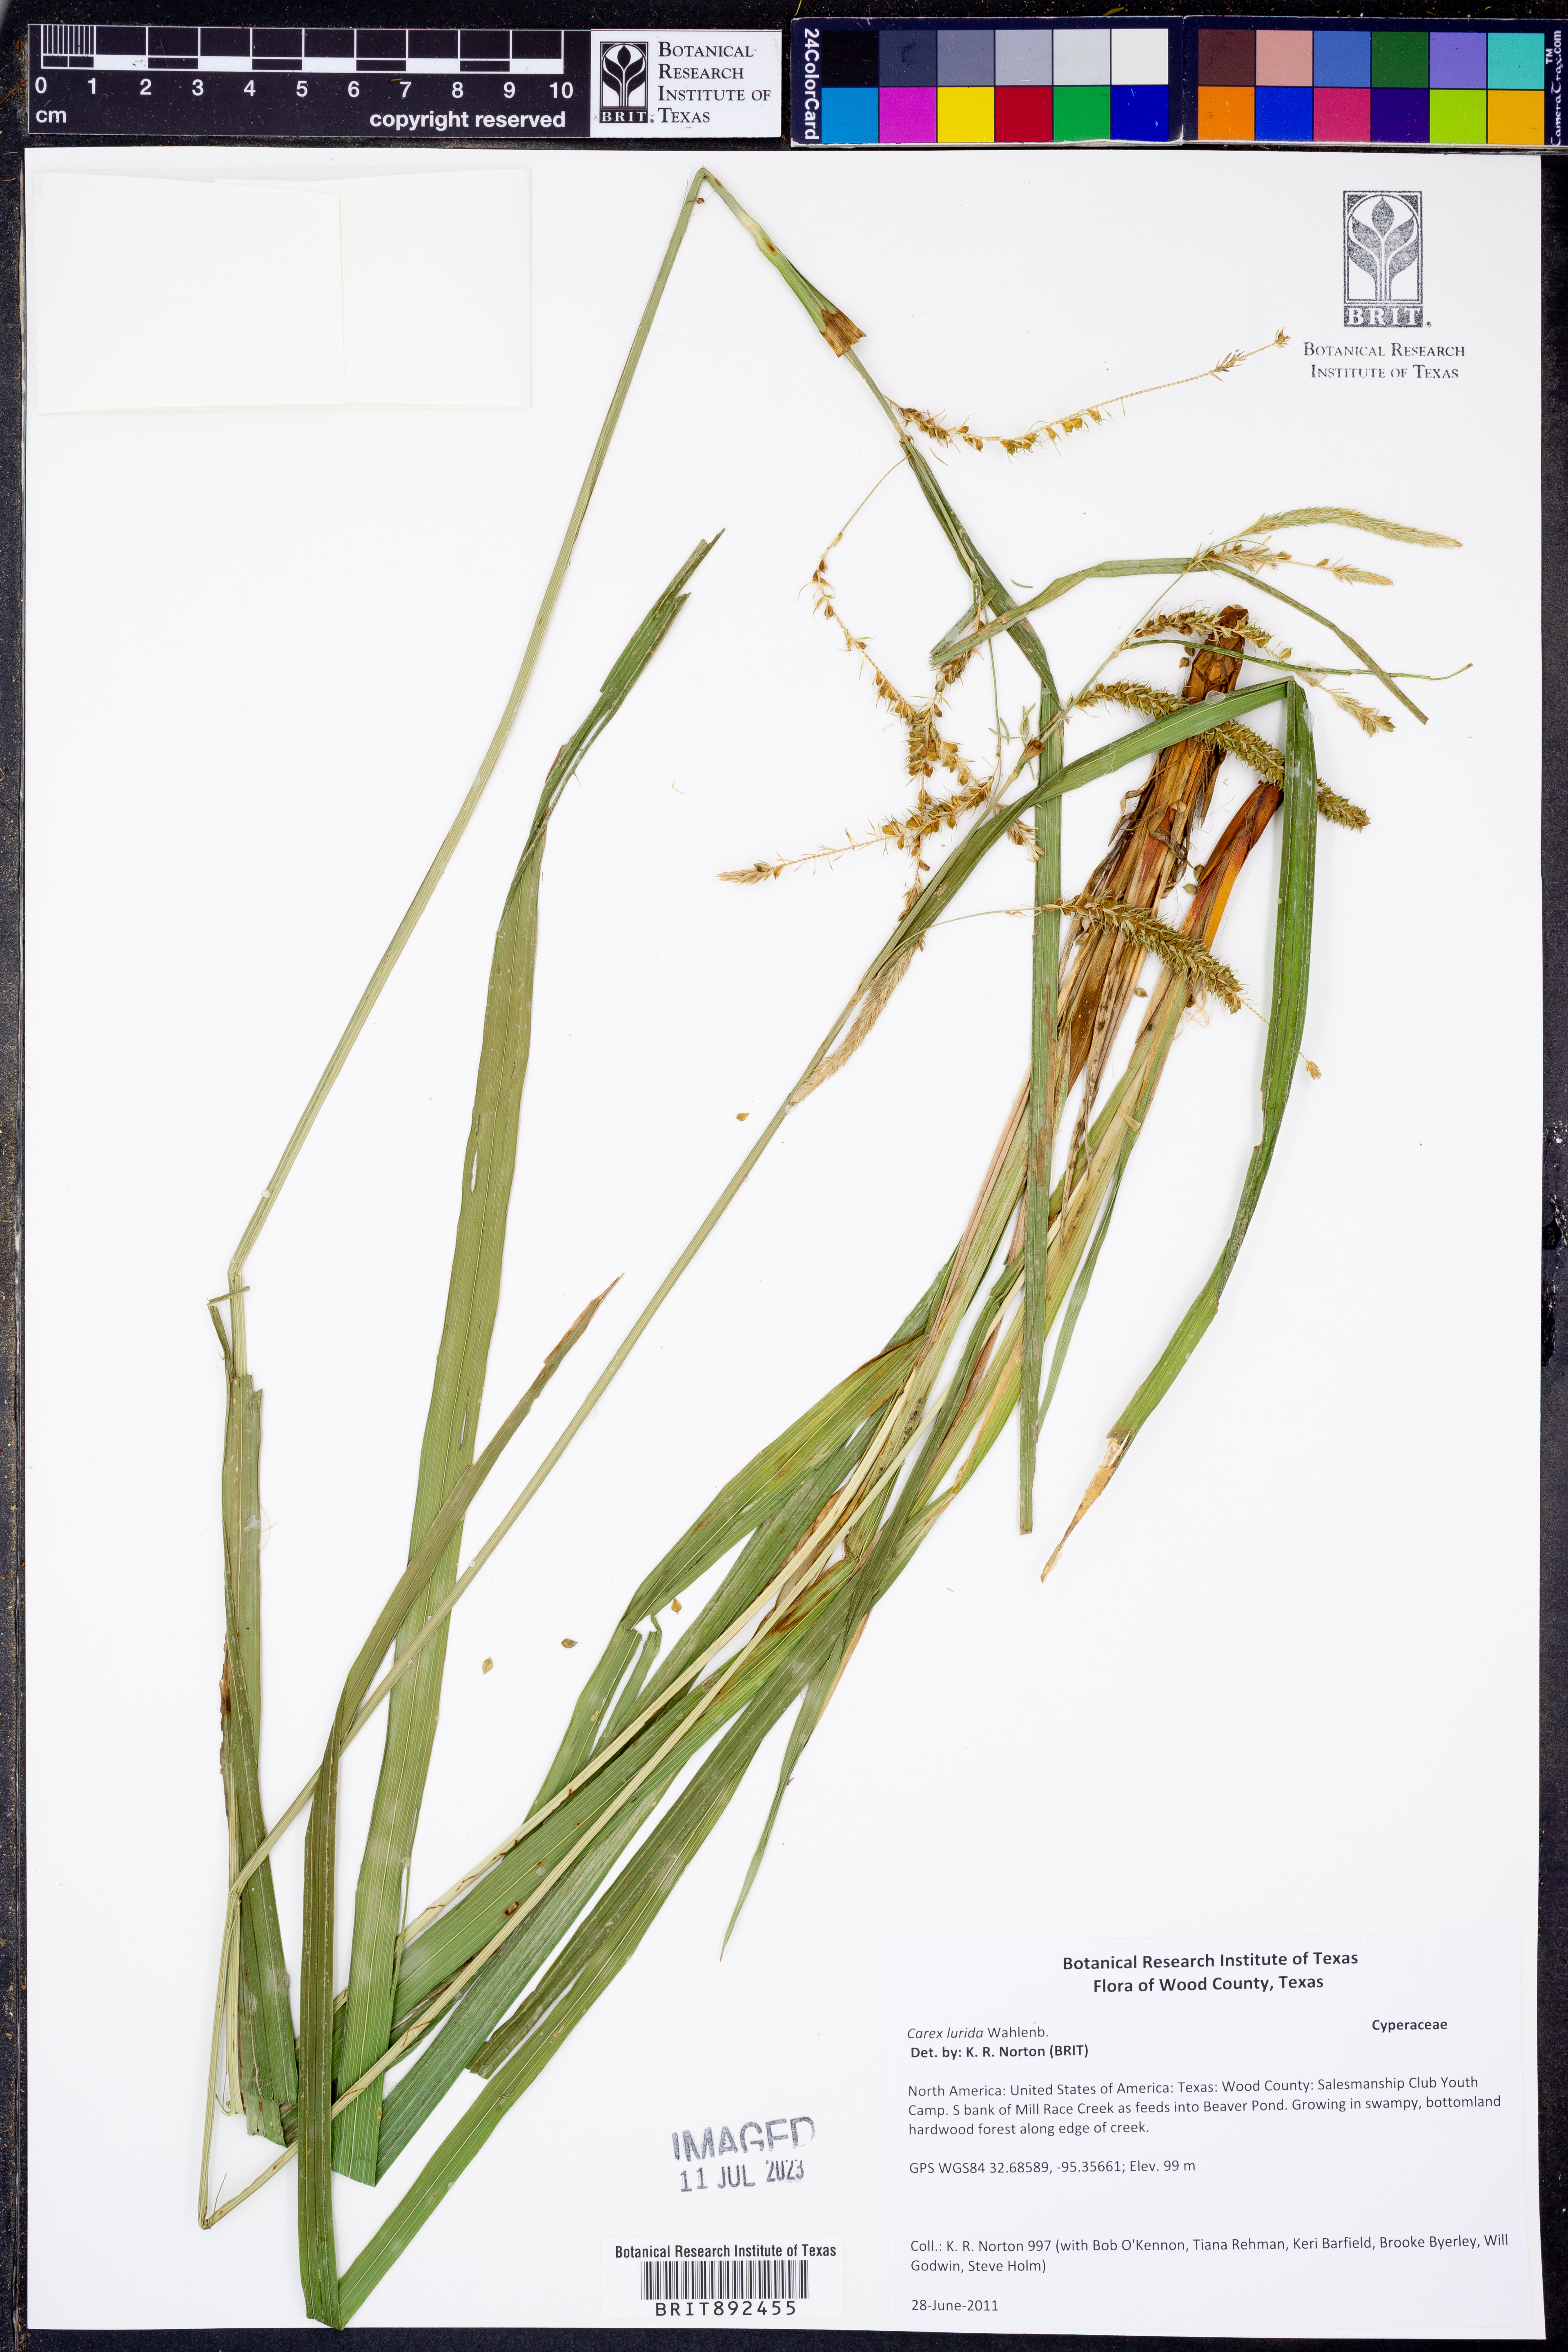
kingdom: Plantae
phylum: Tracheophyta
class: Liliopsida
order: Poales
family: Cyperaceae
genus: Carex
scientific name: Carex lurida
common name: Sallow sedge
